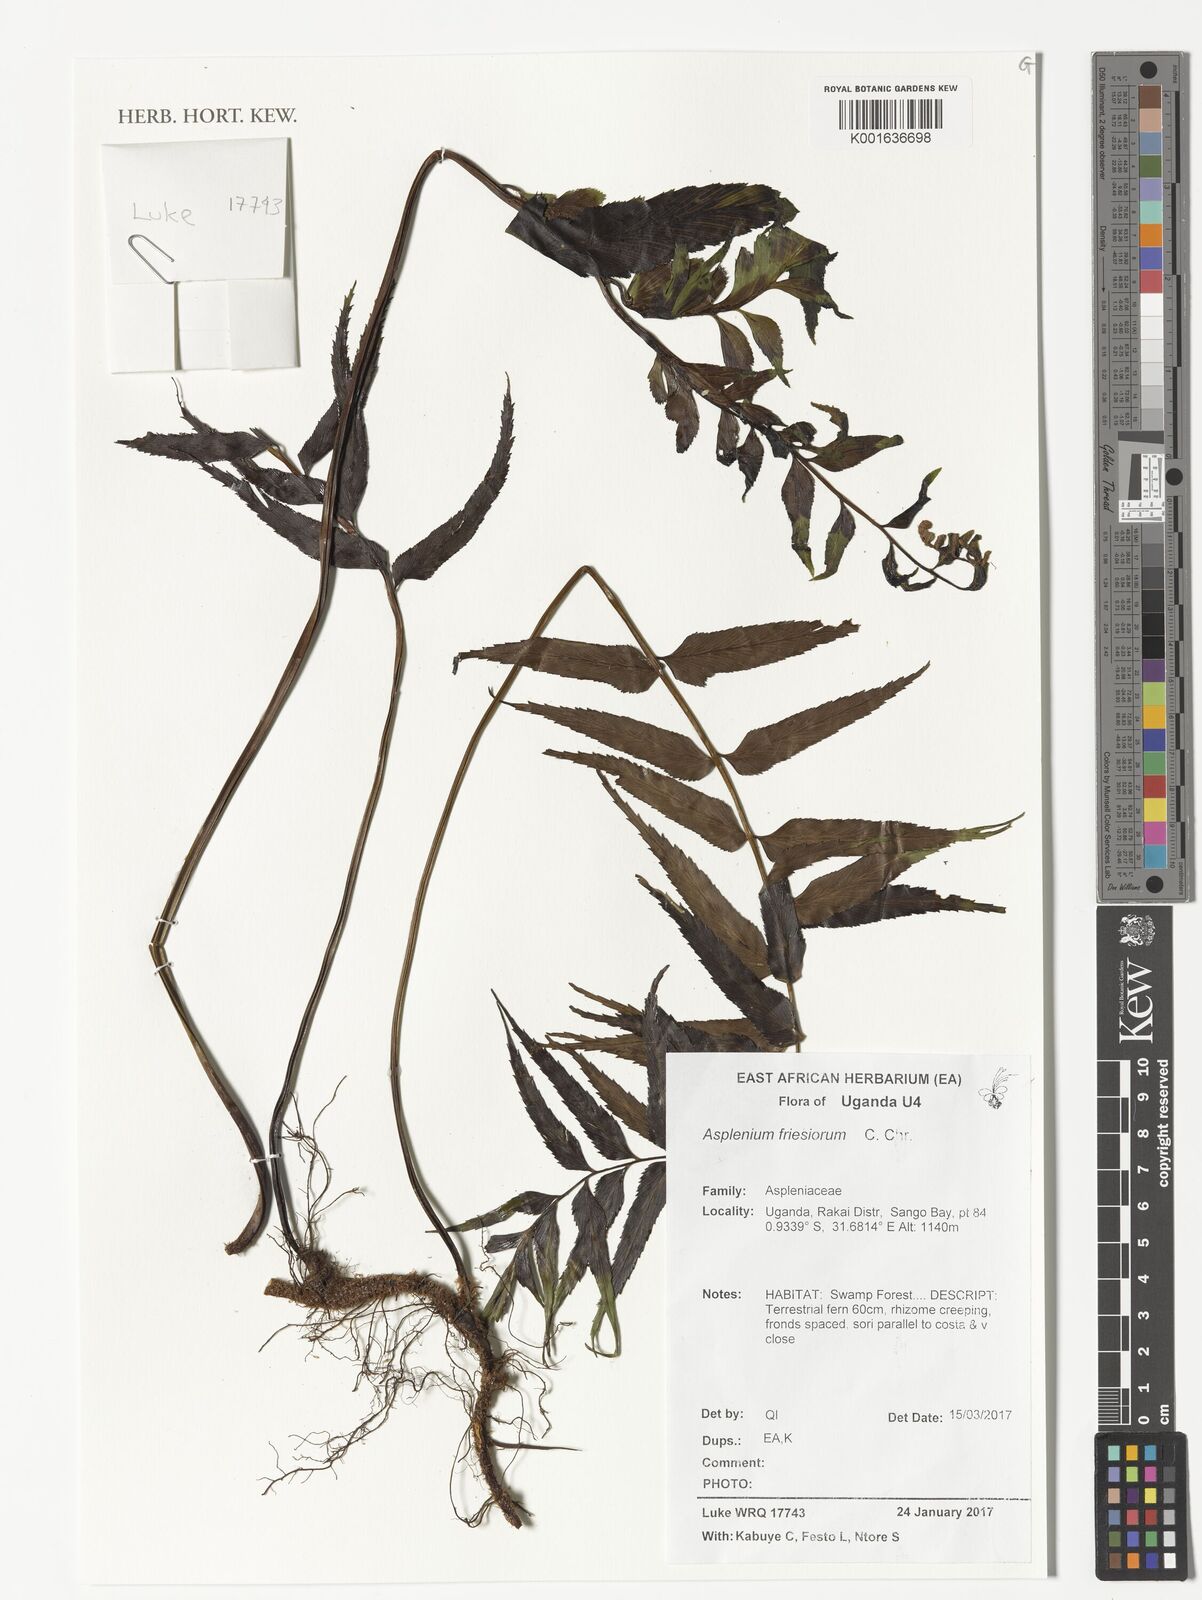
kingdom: Plantae
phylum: Tracheophyta
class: Polypodiopsida
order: Polypodiales
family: Aspleniaceae
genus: Asplenium
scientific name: Asplenium gueinzianum
